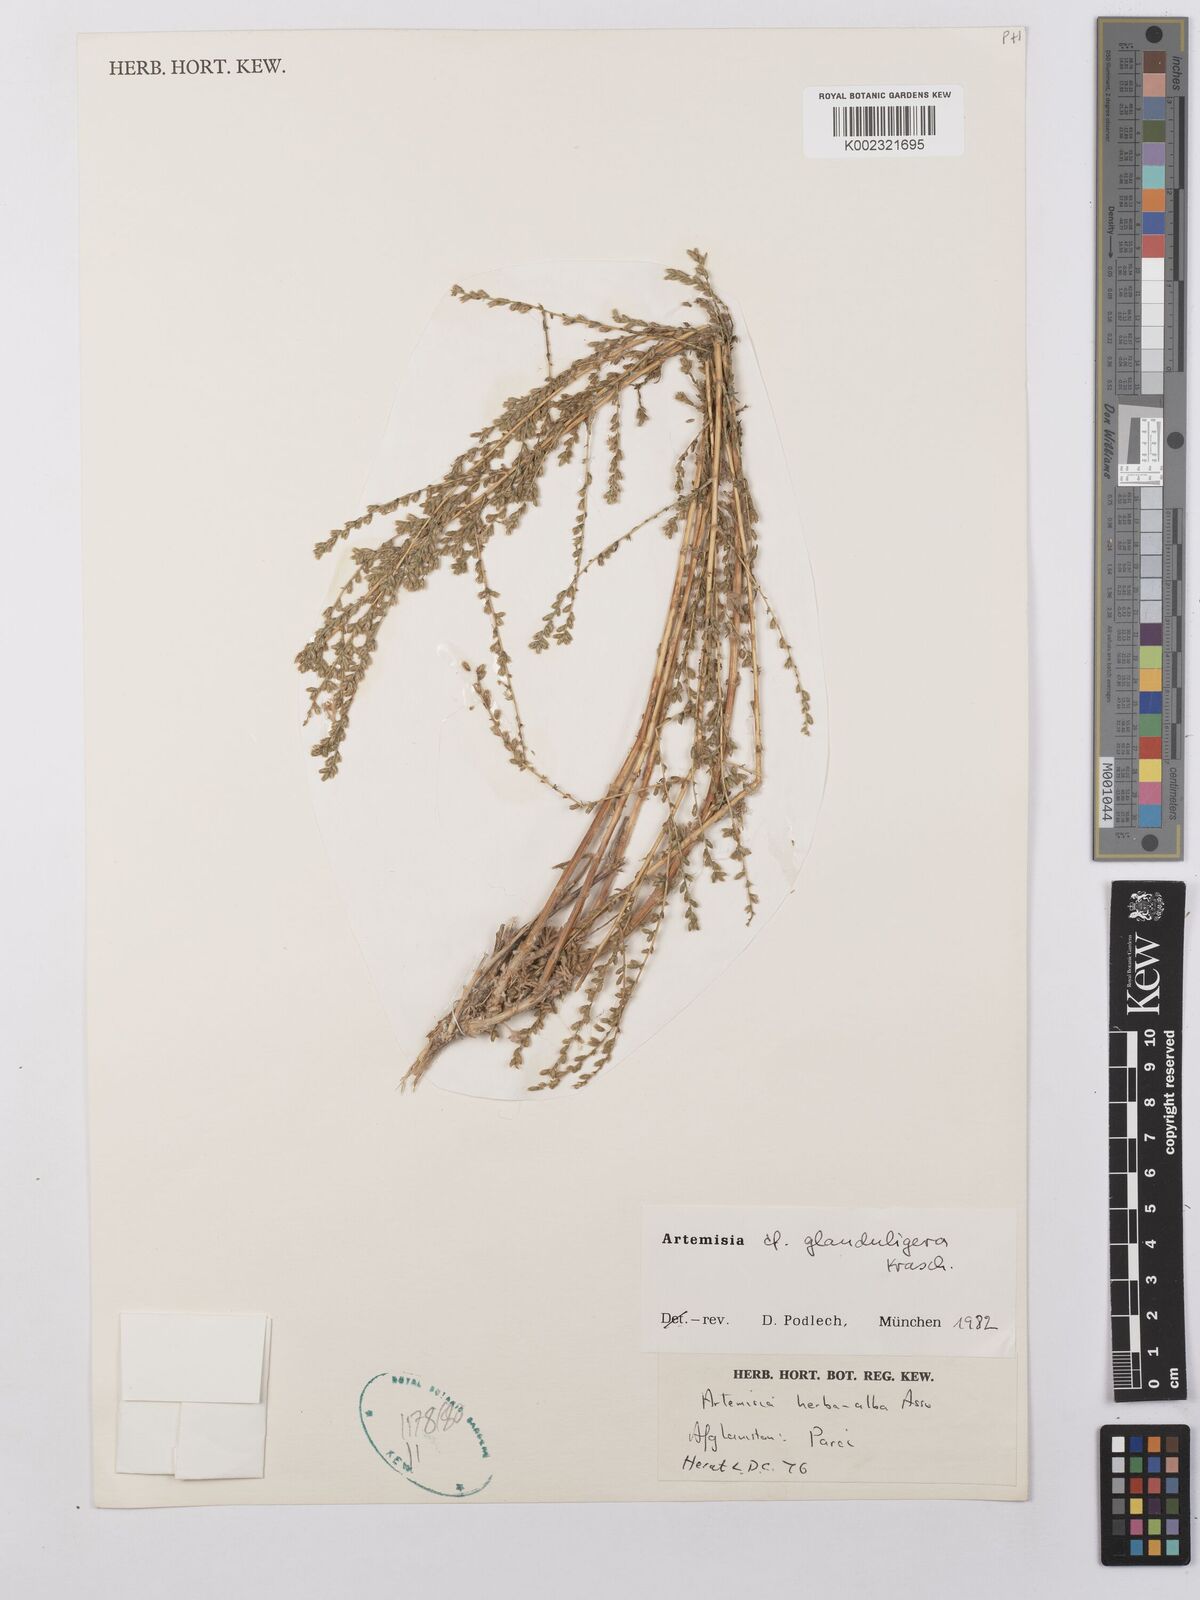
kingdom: Plantae
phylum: Tracheophyta
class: Magnoliopsida
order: Asterales
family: Asteraceae
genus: Artemisia
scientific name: Artemisia glanduligera
